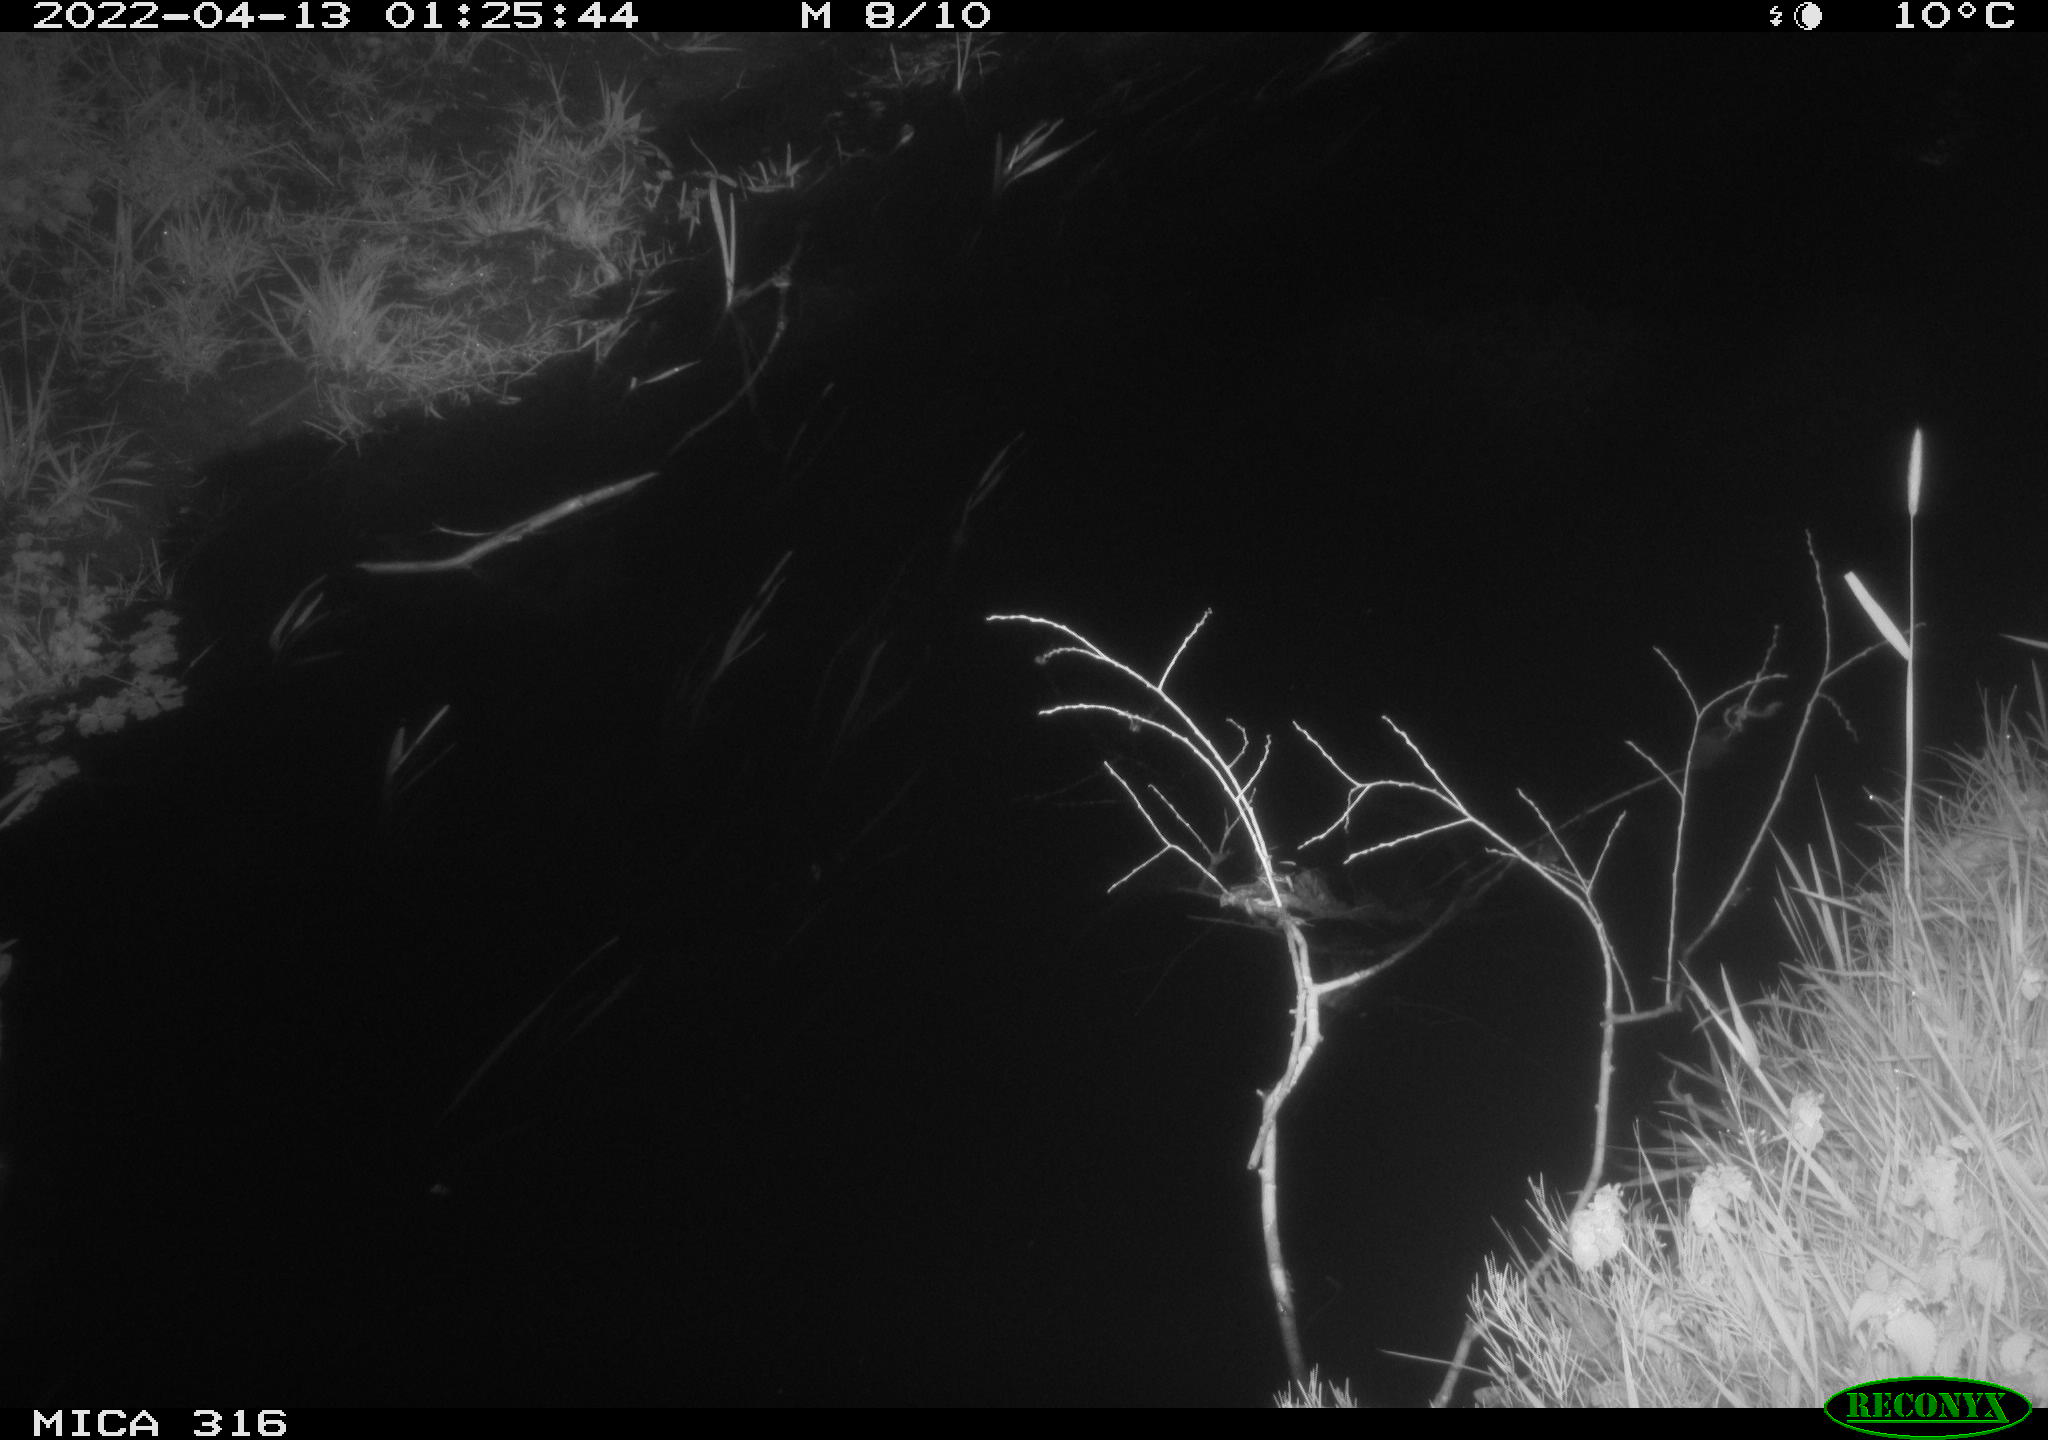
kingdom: Animalia
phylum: Chordata
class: Aves
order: Gruiformes
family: Rallidae
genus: Gallinula
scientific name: Gallinula chloropus
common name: Common moorhen
